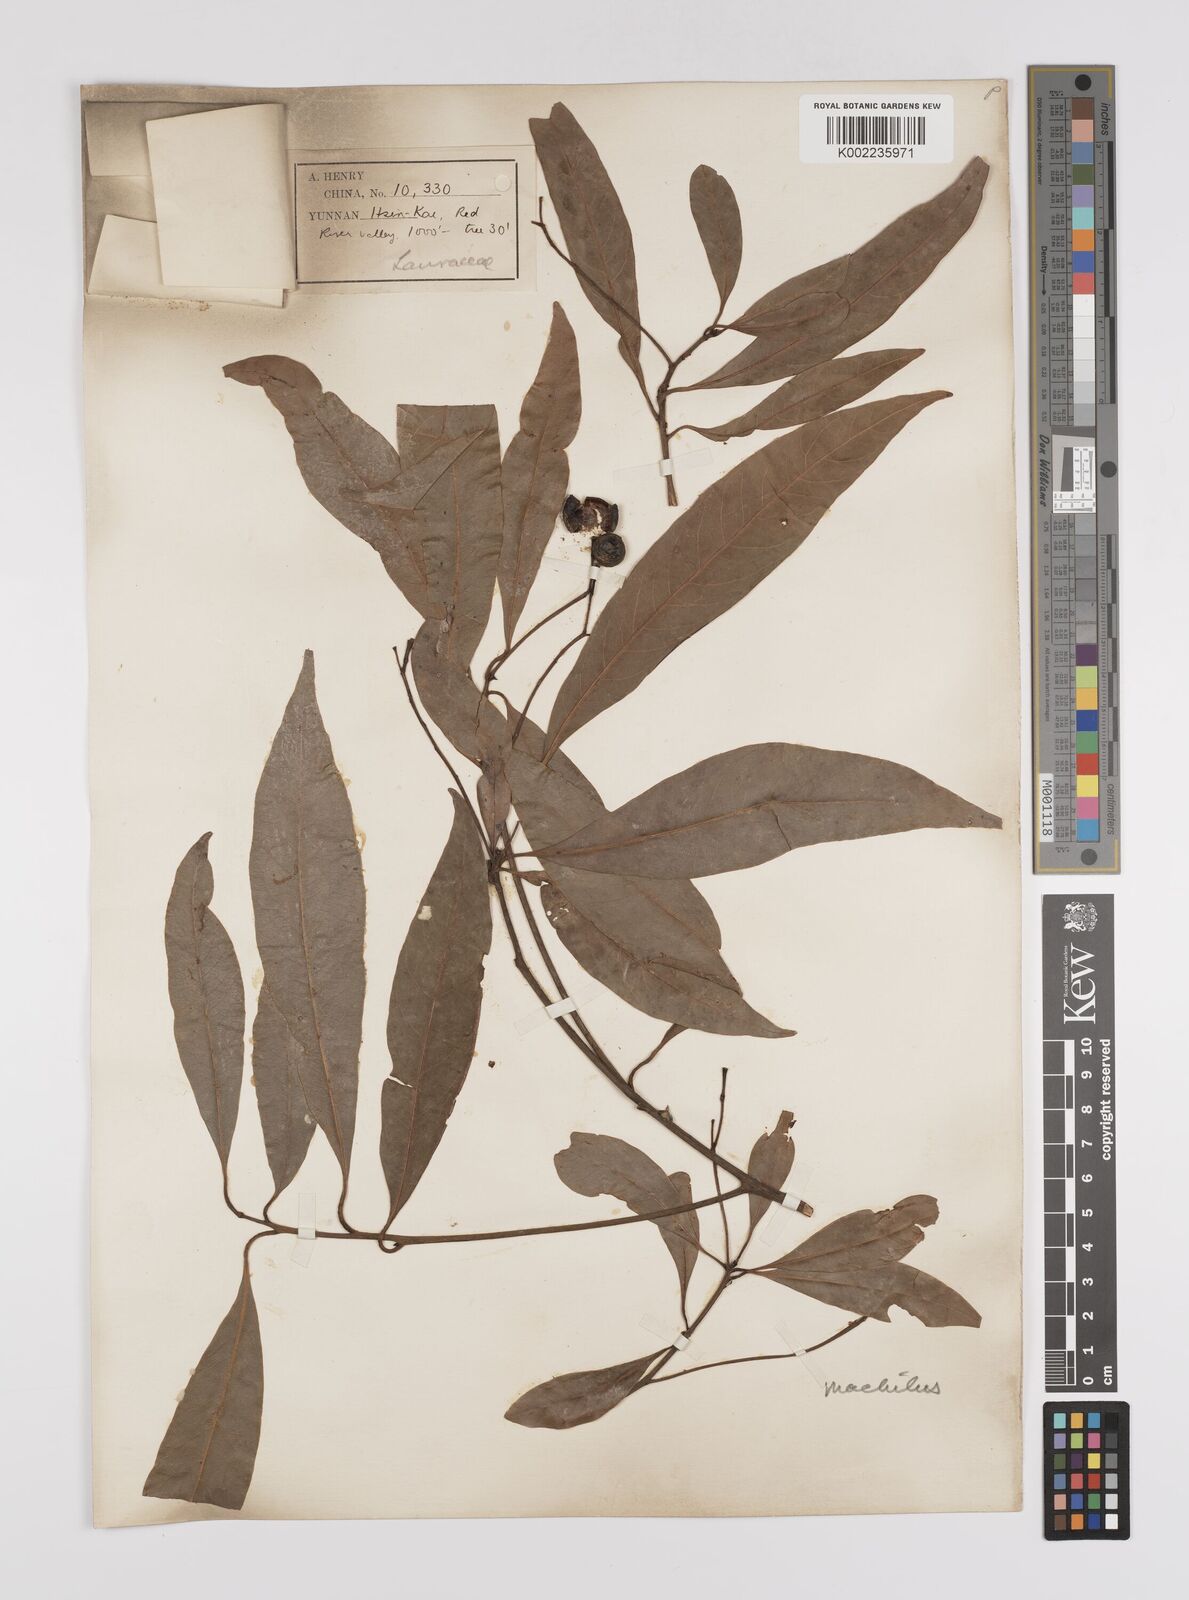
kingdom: Plantae
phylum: Tracheophyta
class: Magnoliopsida
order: Laurales
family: Lauraceae
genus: Persea
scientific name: Persea
